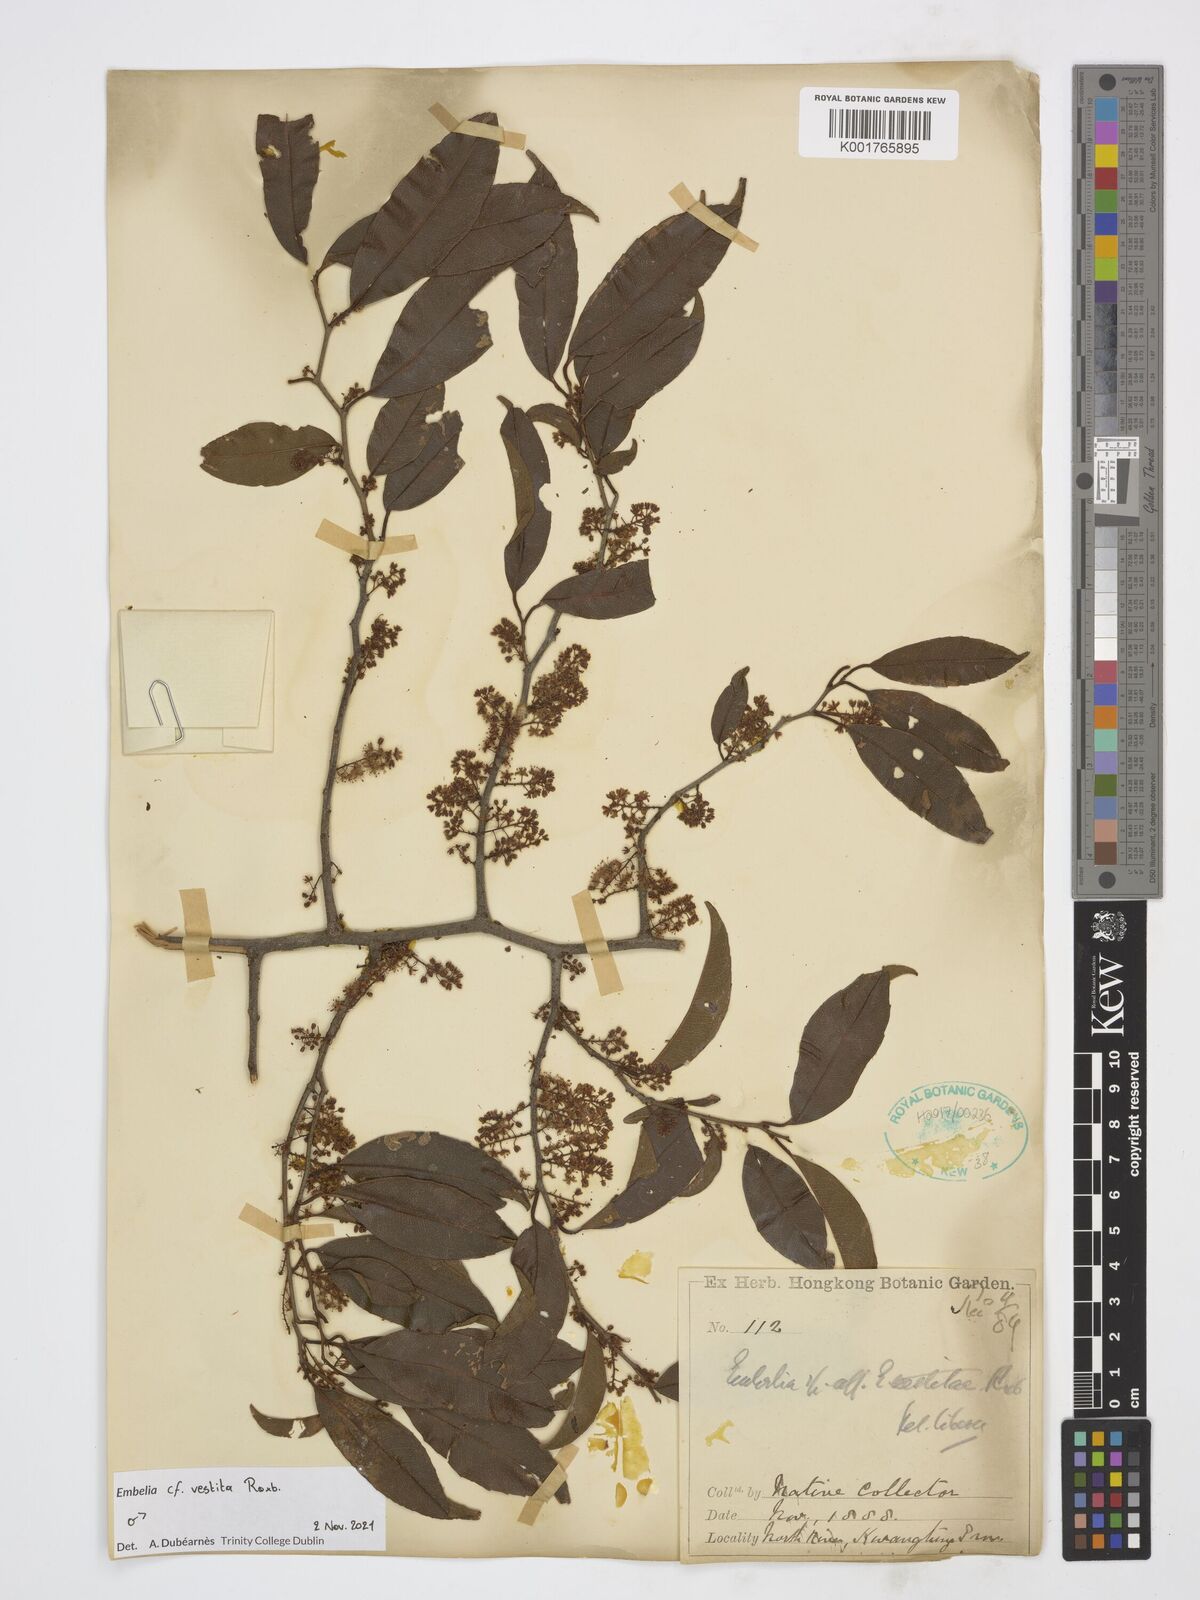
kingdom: Plantae
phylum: Tracheophyta
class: Magnoliopsida
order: Ericales
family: Primulaceae
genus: Embelia
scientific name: Embelia vestita
